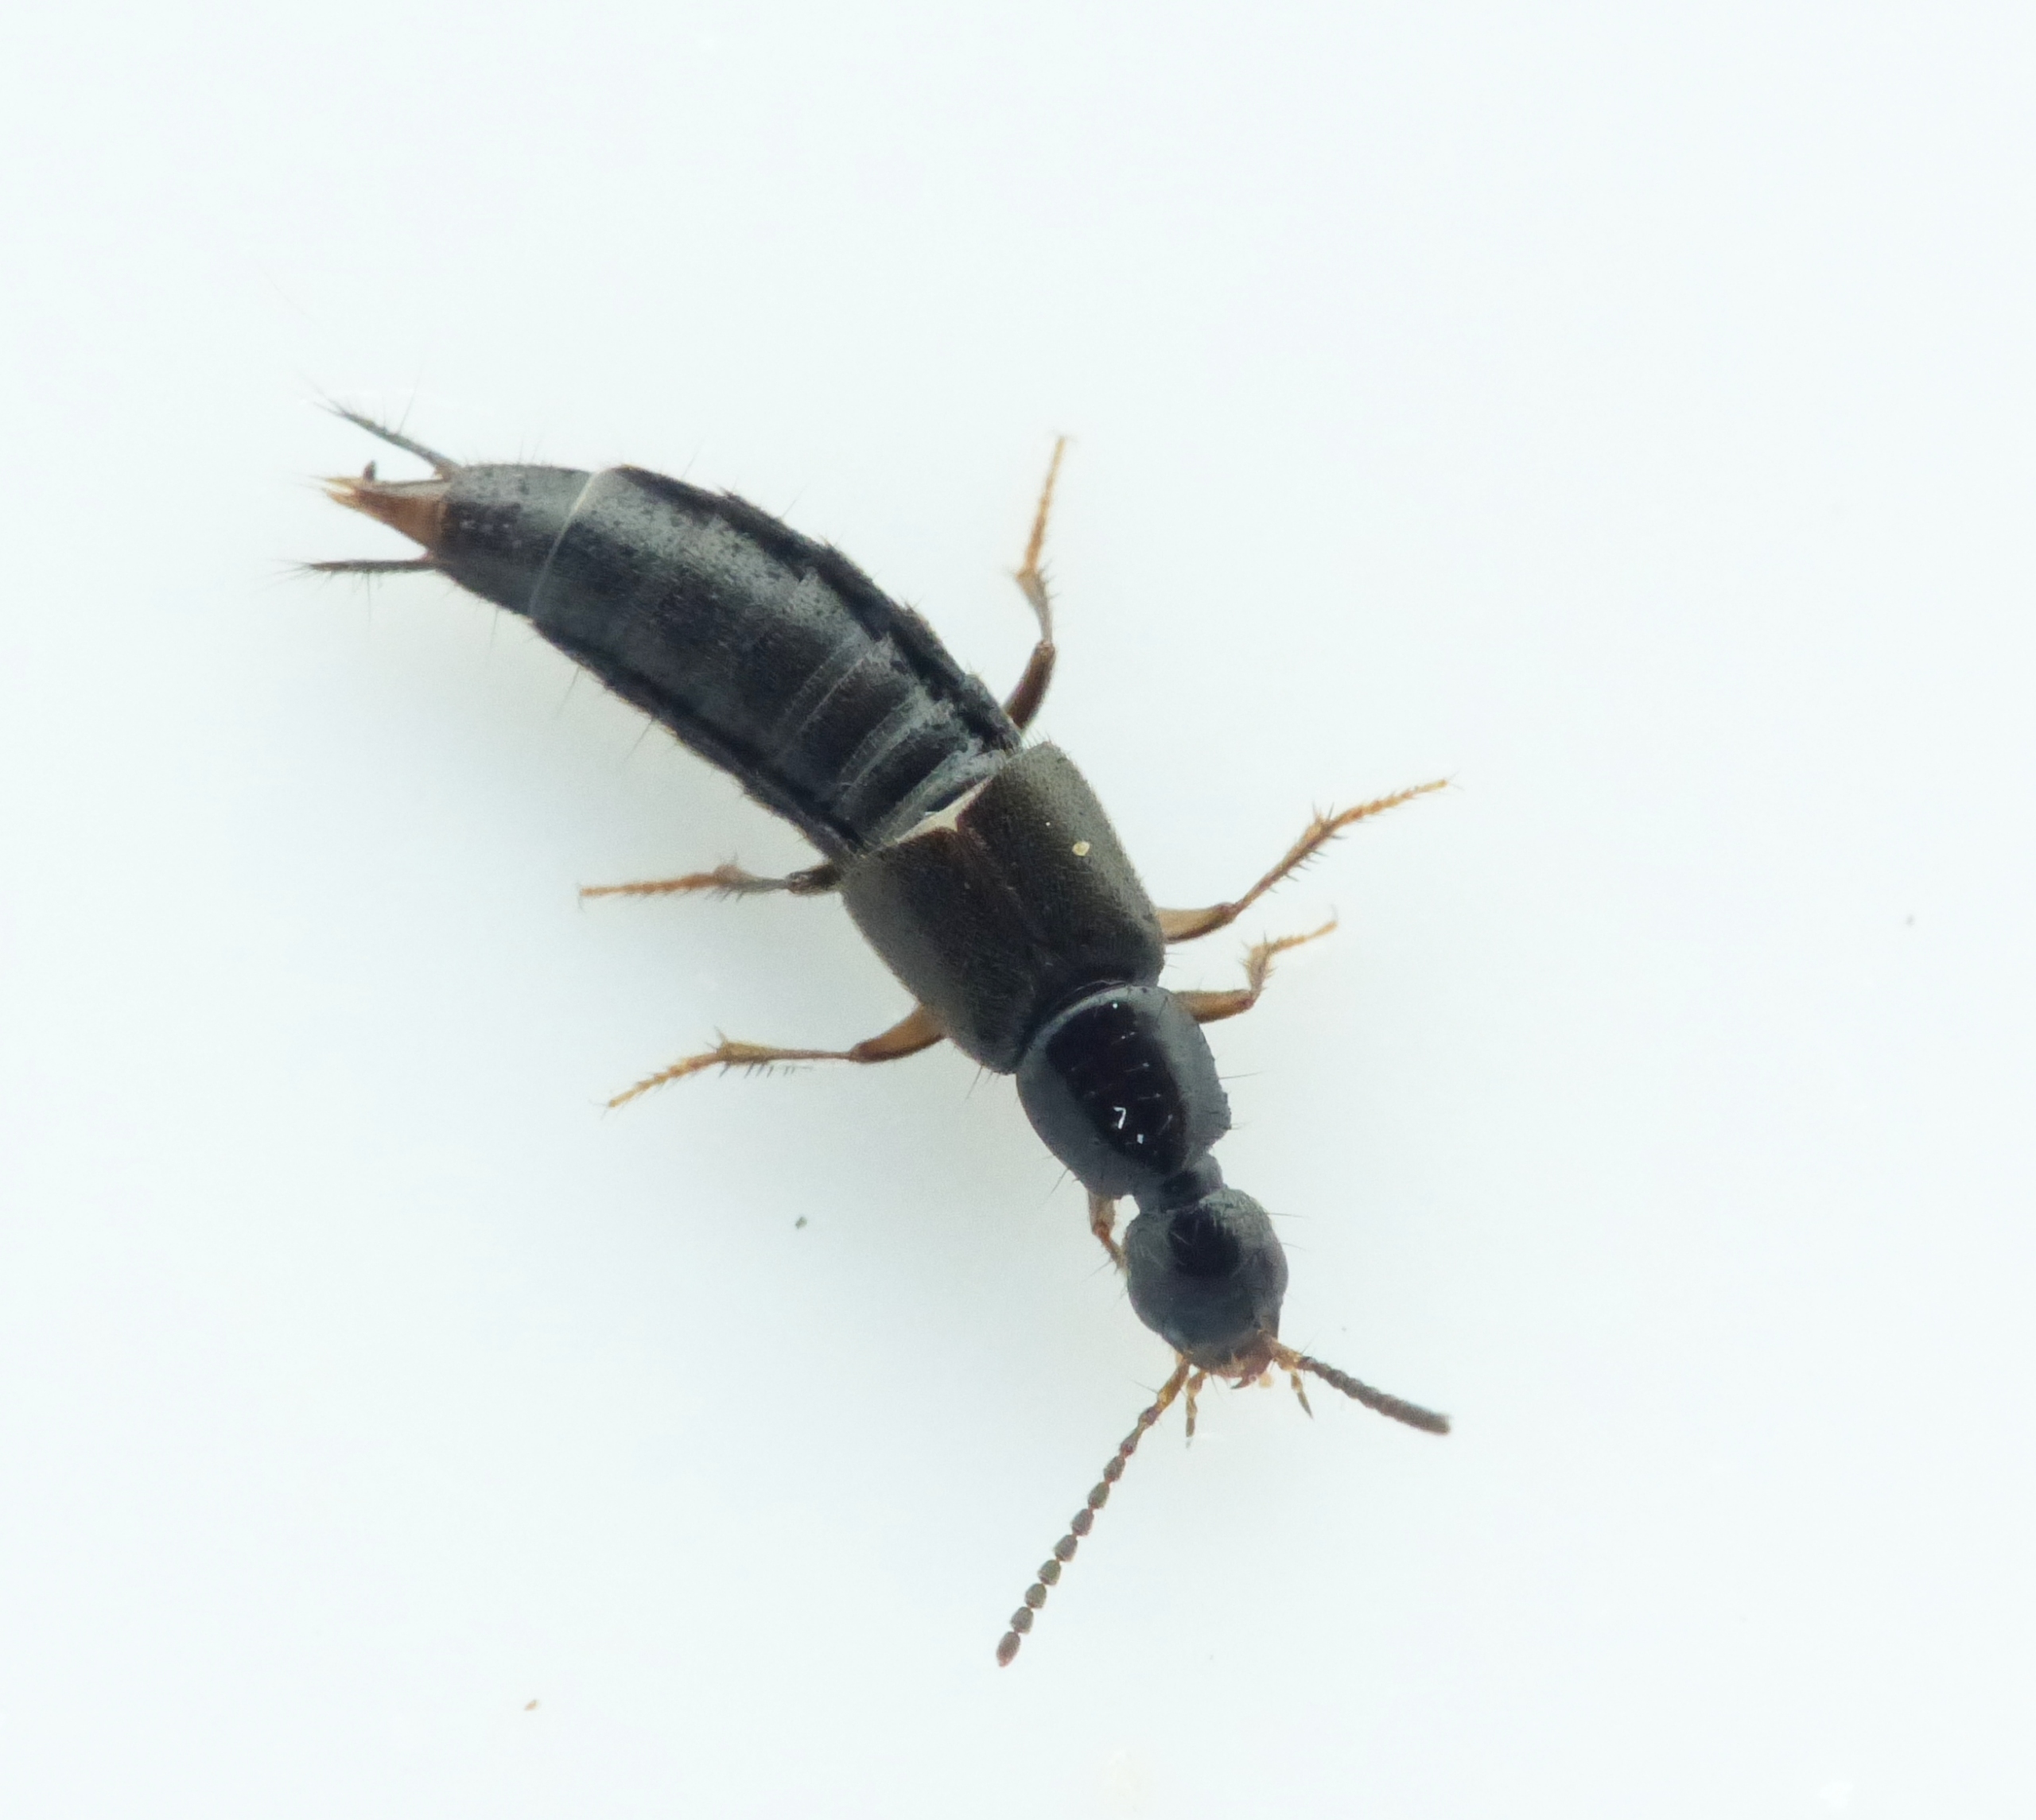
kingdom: Animalia
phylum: Arthropoda
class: Insecta
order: Coleoptera
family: Staphylinidae
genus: Philonthus
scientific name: Philonthus quisquiliarius
